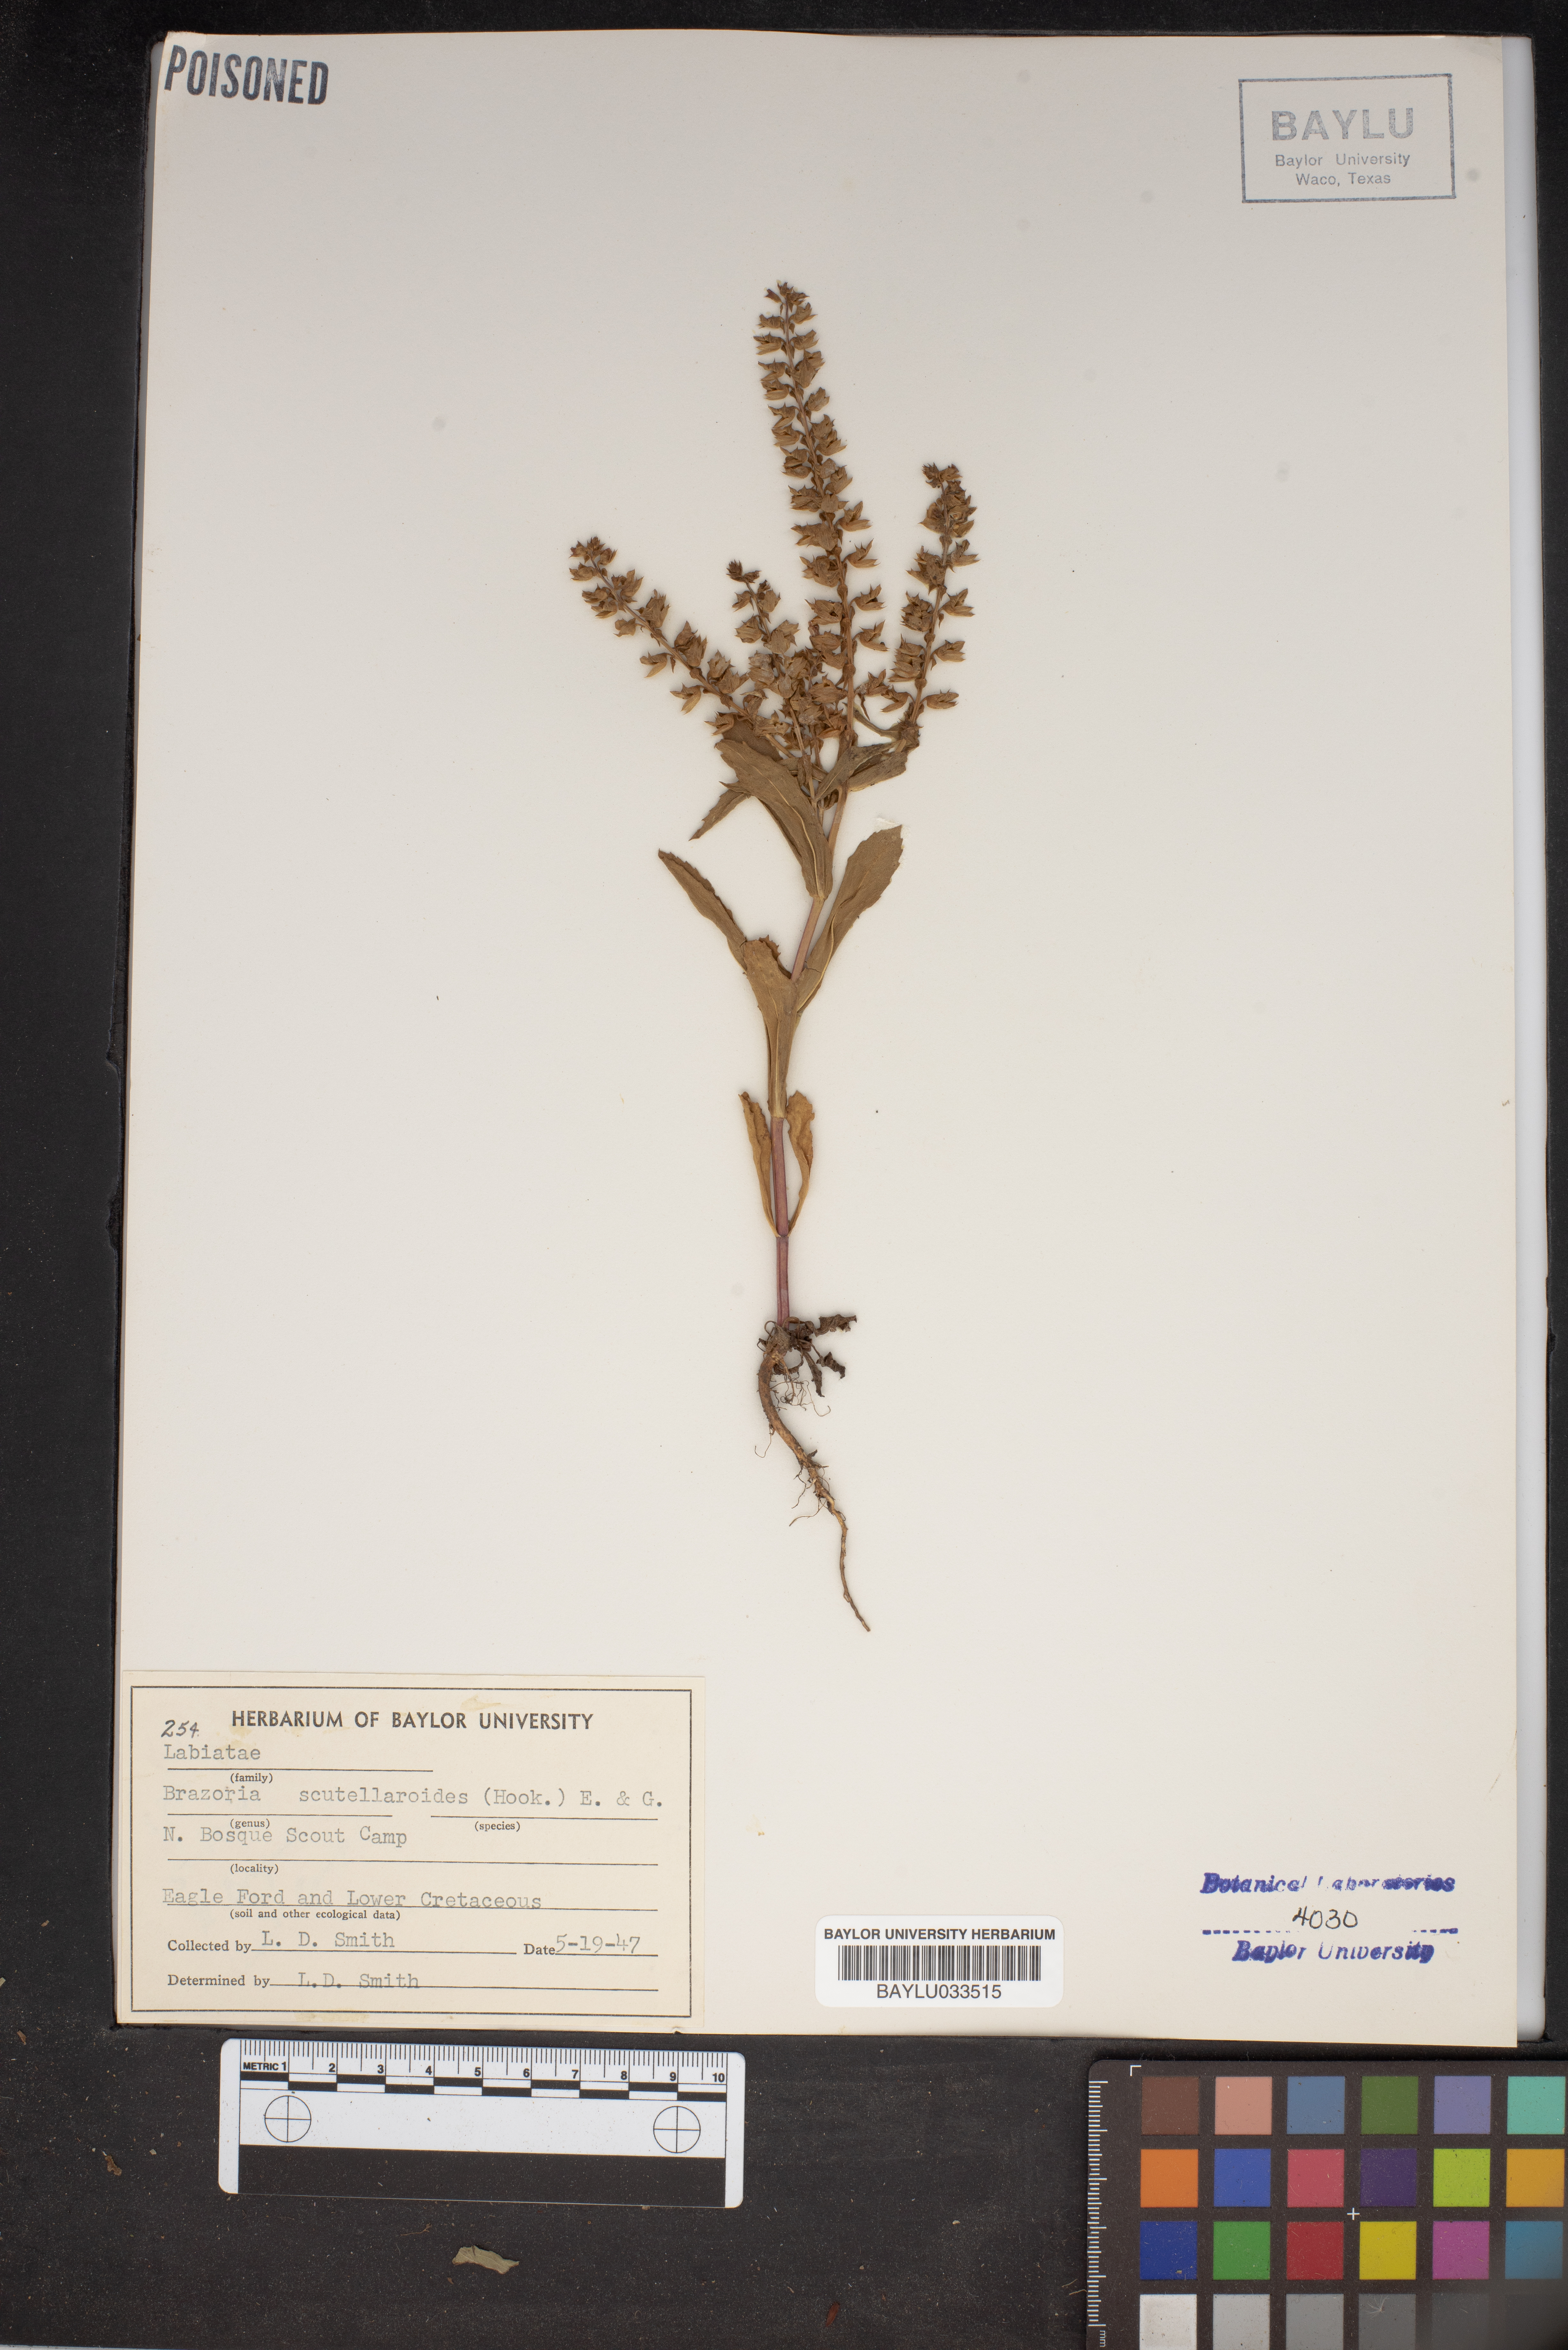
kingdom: Plantae
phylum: Tracheophyta
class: Magnoliopsida
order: Lamiales
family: Lamiaceae
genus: Warnockia
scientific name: Warnockia scutellarioides
